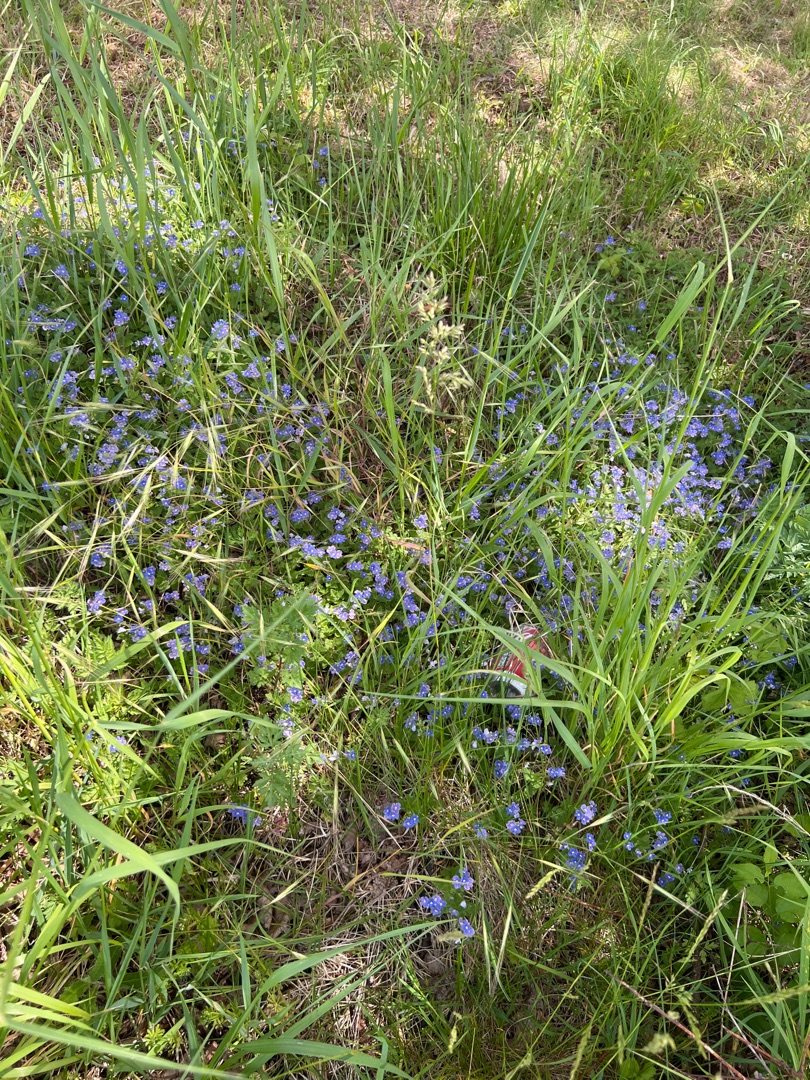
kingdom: Plantae
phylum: Tracheophyta
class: Magnoliopsida
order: Lamiales
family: Plantaginaceae
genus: Veronica
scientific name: Veronica chamaedrys
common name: Tveskægget ærenpris
